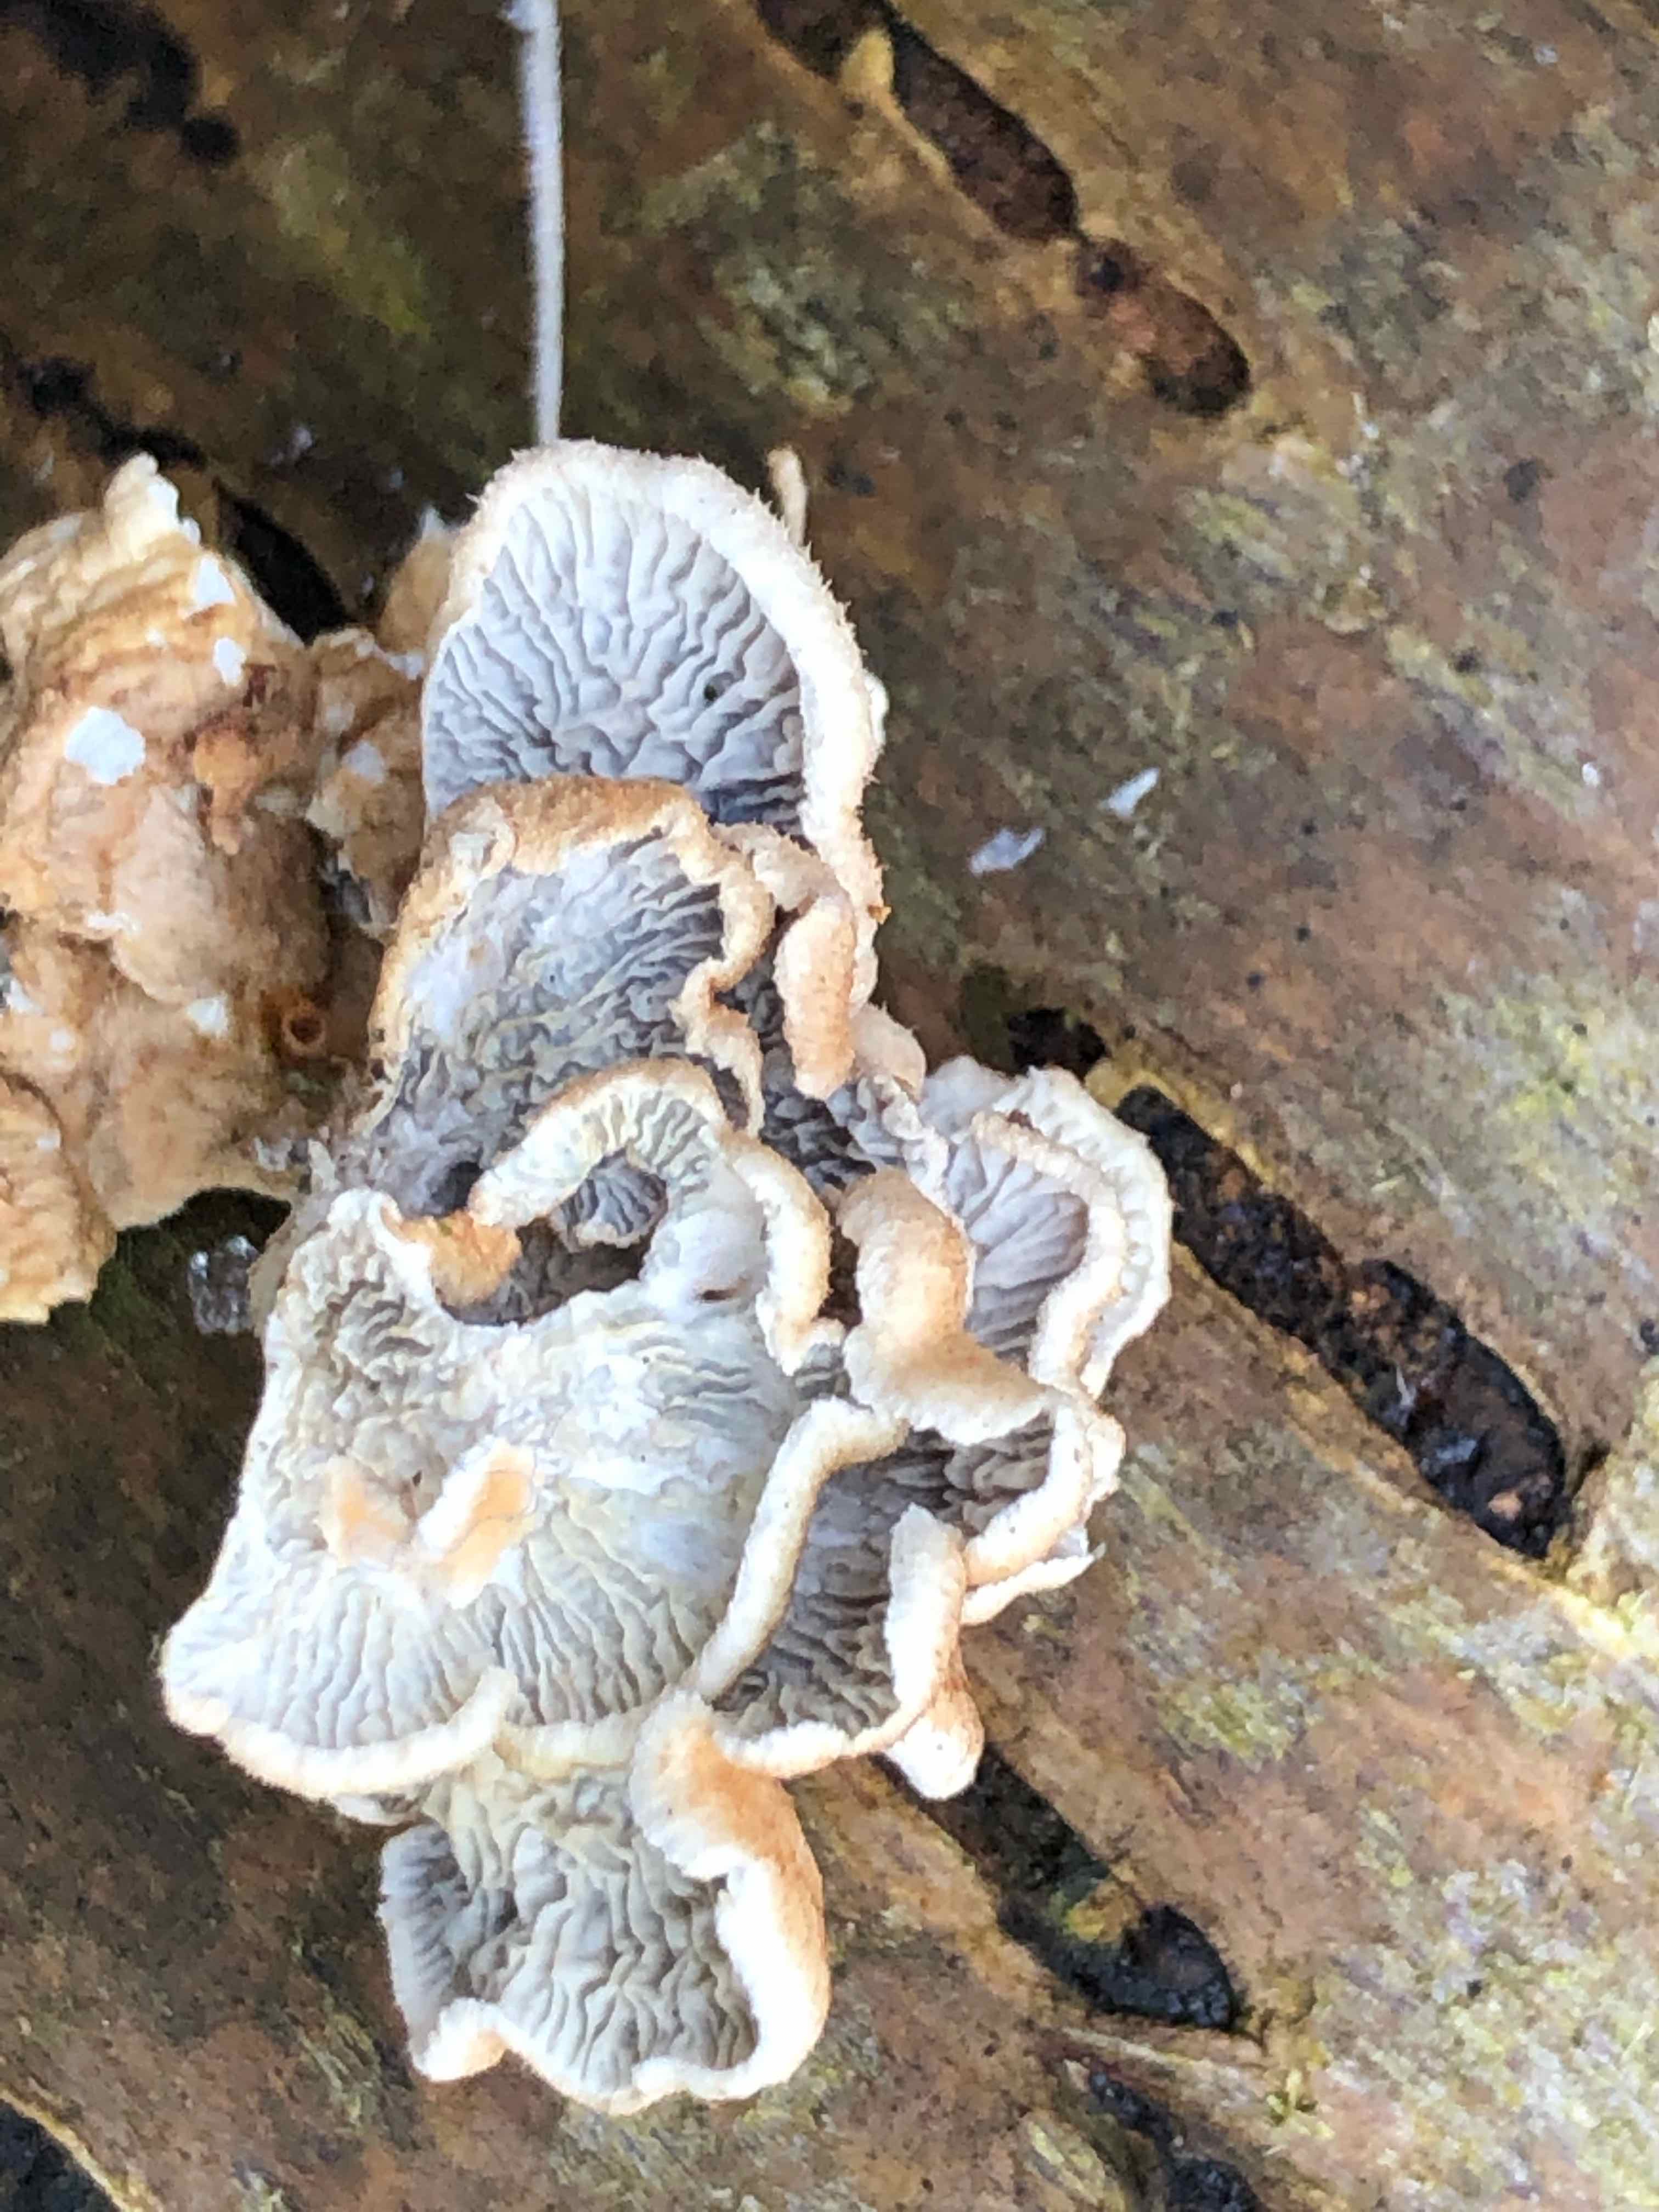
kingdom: Fungi
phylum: Basidiomycota
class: Agaricomycetes
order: Amylocorticiales
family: Amylocorticiaceae
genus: Plicaturopsis
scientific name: Plicaturopsis crispa
